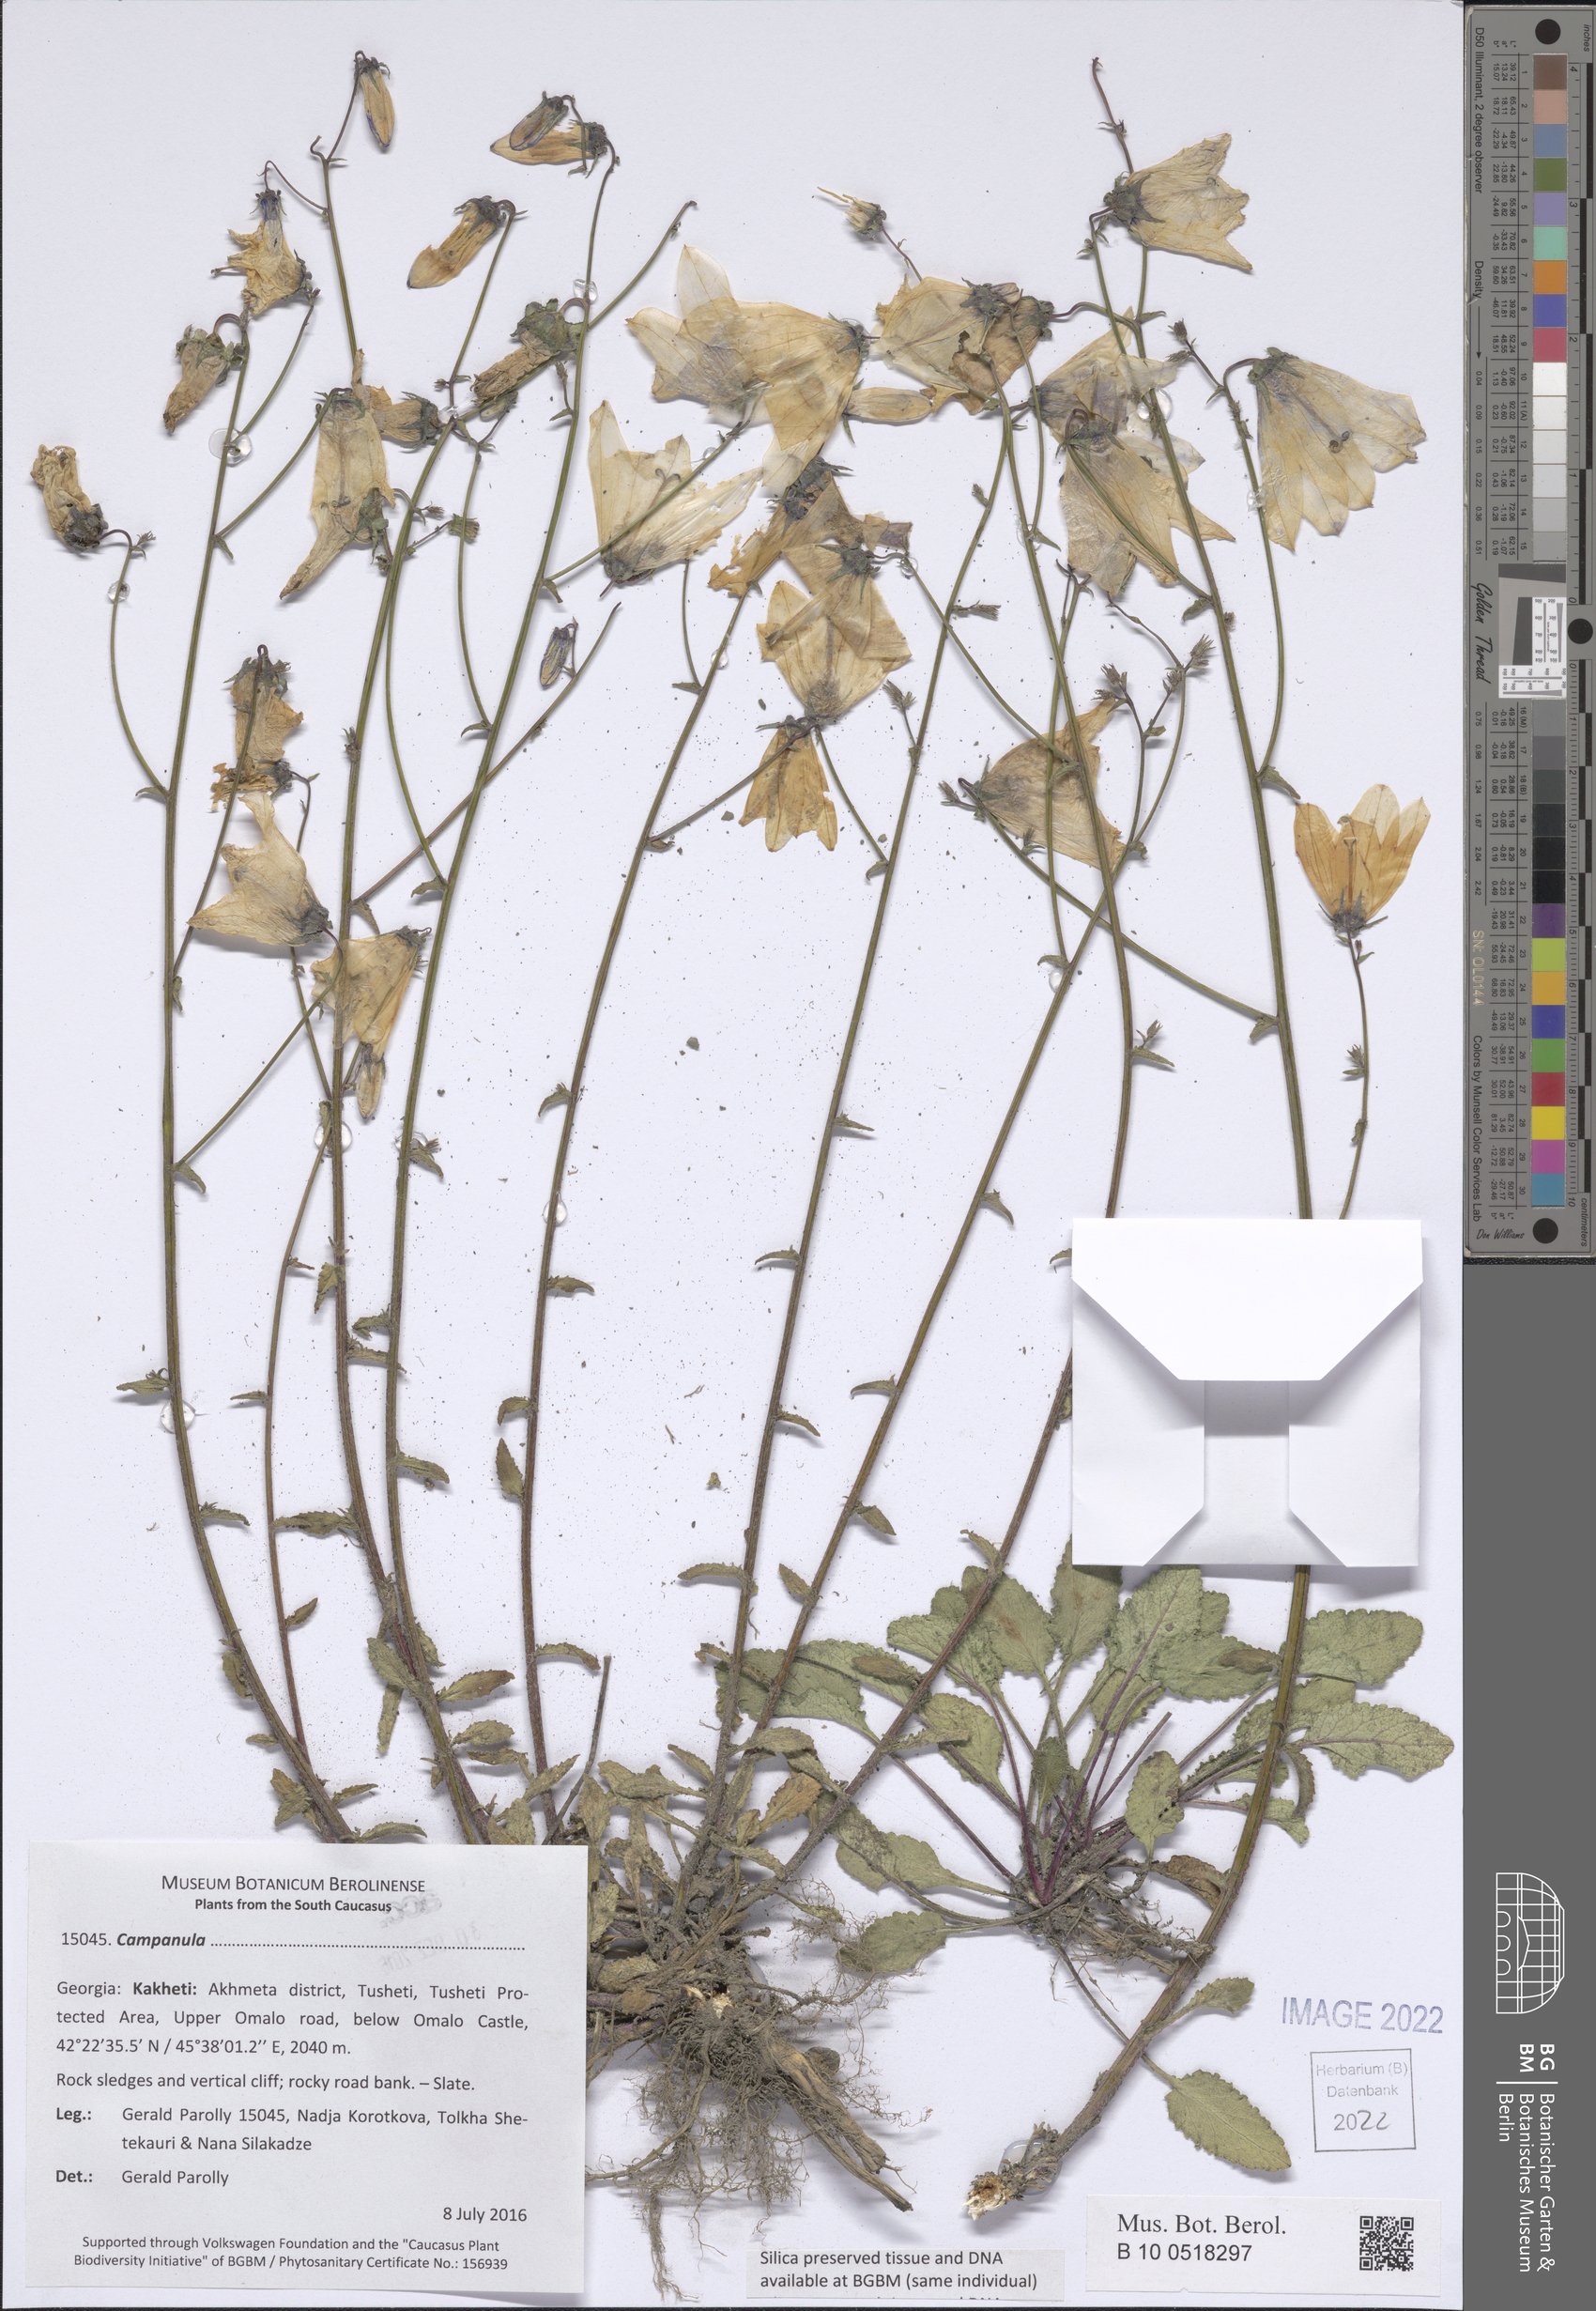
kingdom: Plantae
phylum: Tracheophyta
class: Magnoliopsida
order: Asterales
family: Campanulaceae
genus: Campanula
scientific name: Campanula
